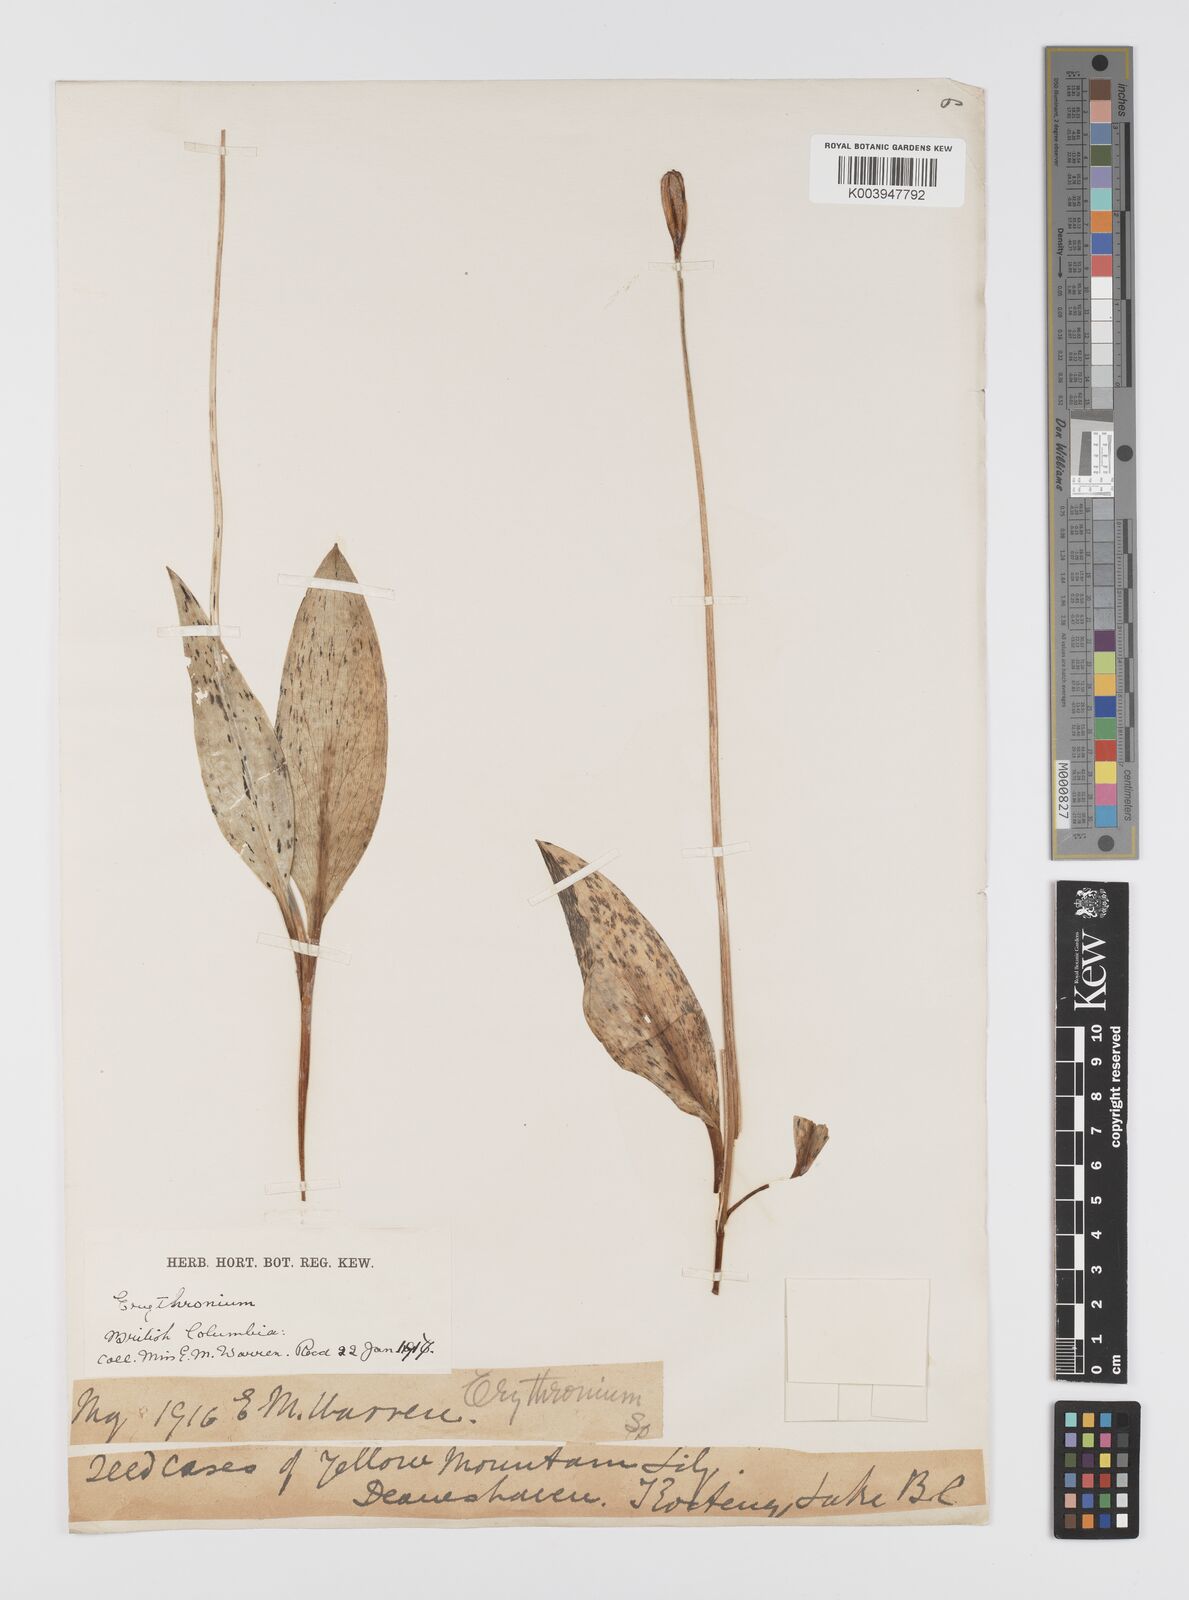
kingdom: Plantae
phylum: Tracheophyta
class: Liliopsida
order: Liliales
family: Liliaceae
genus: Erythronium
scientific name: Erythronium
